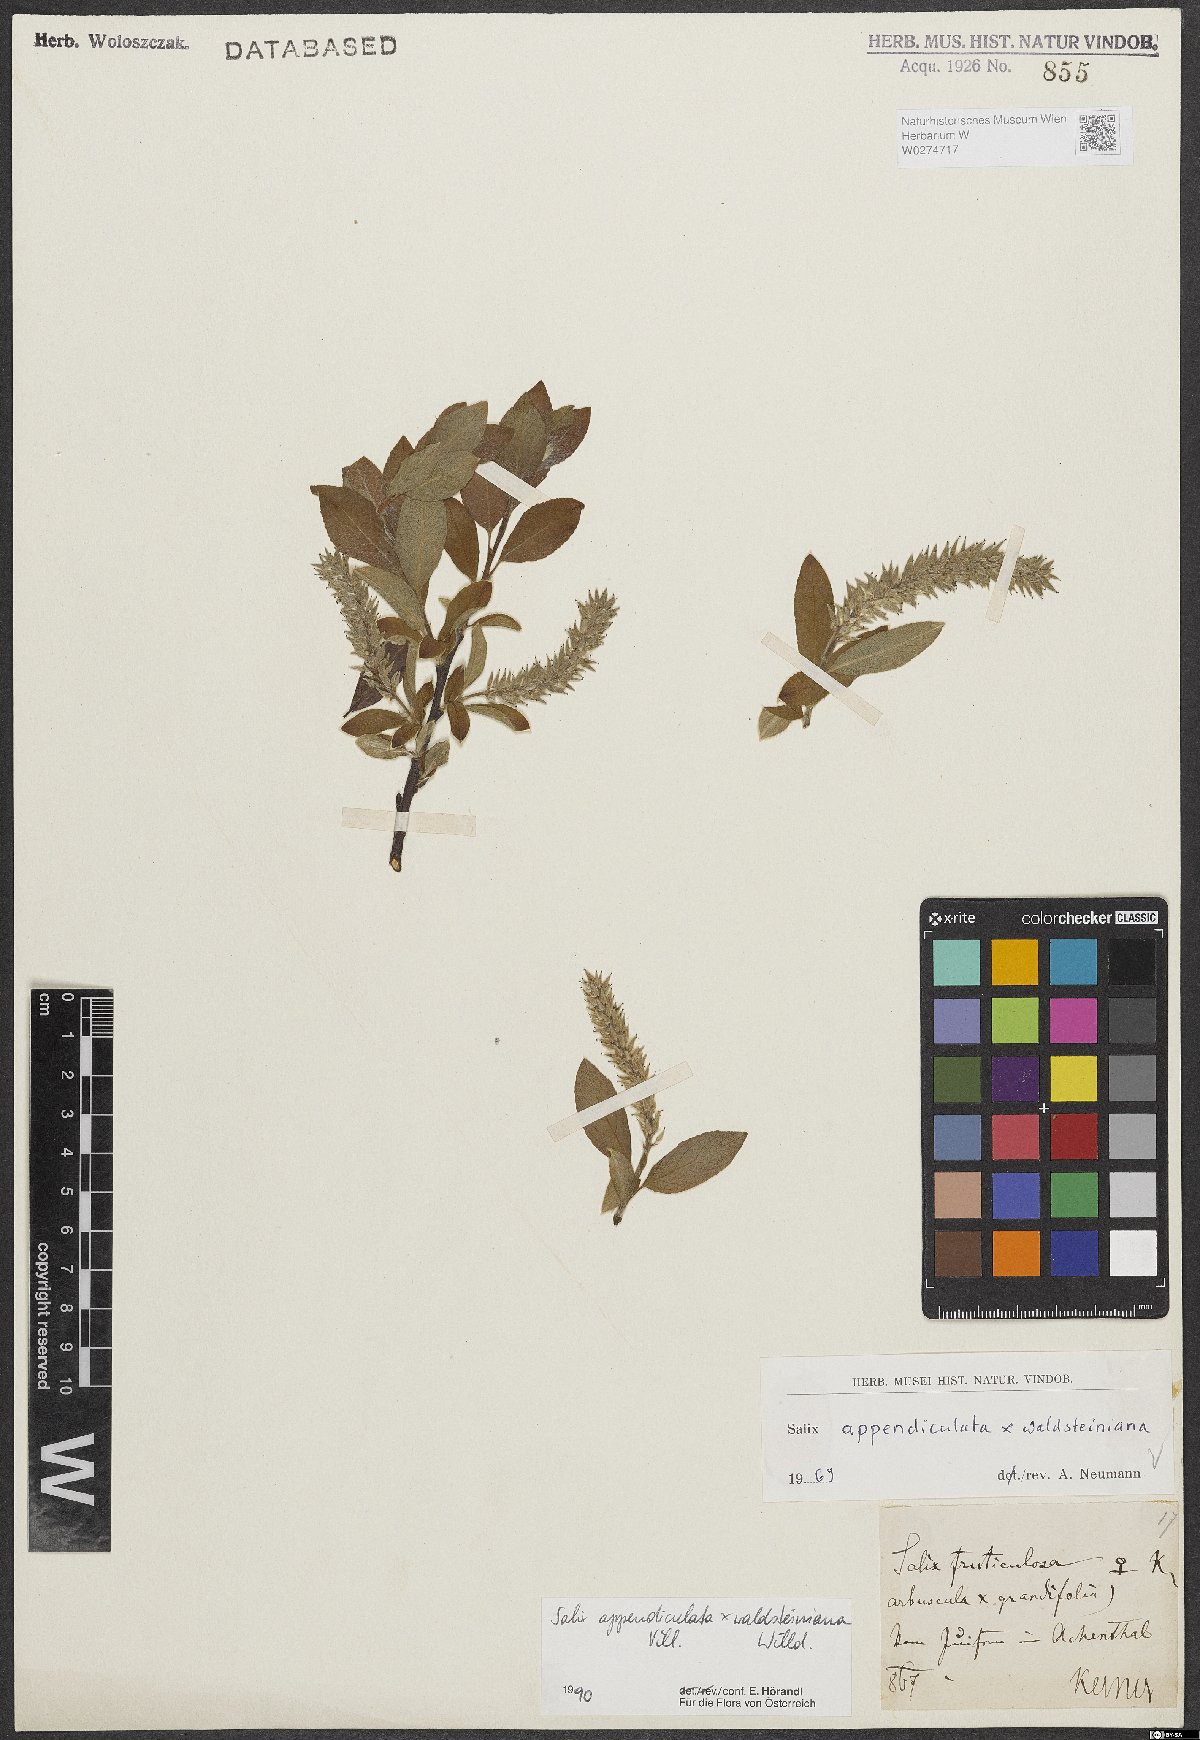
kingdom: Plantae
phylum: Tracheophyta
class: Magnoliopsida
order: Malpighiales
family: Salicaceae
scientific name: Salicaceae
